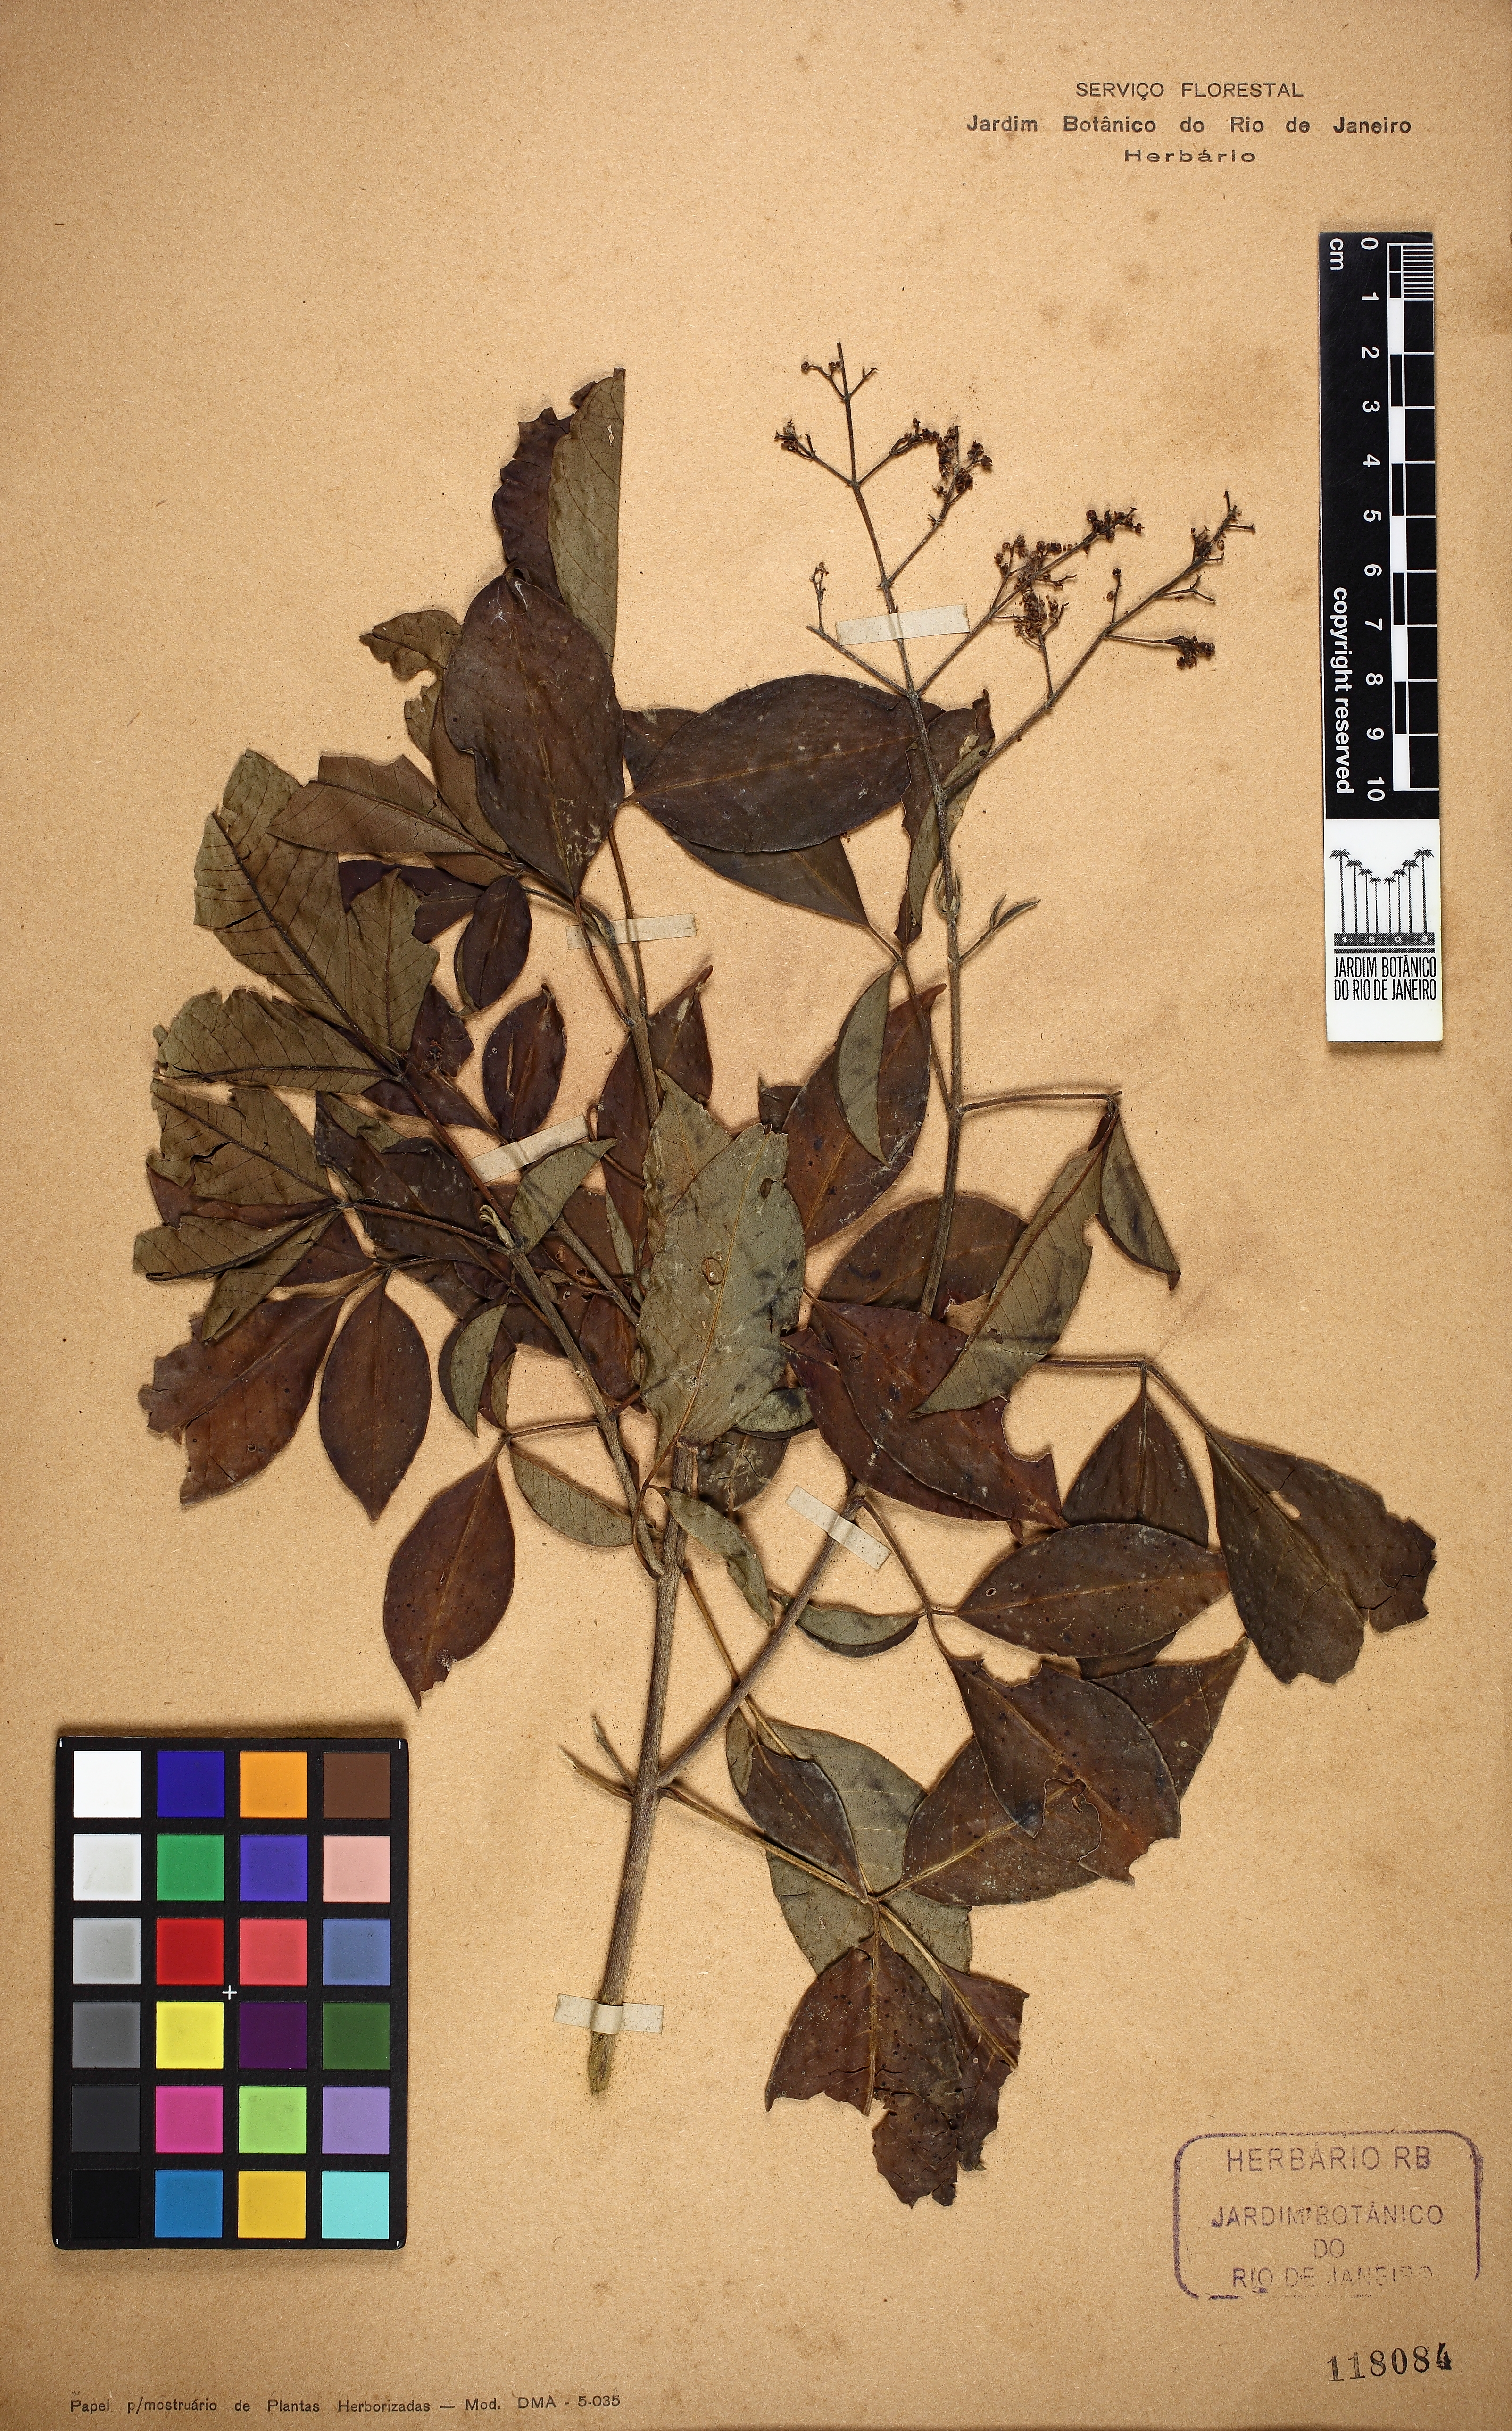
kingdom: Plantae
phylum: Tracheophyta
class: Magnoliopsida
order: Sapindales
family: Rutaceae
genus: Esenbeckia
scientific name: Esenbeckia febrifuga
